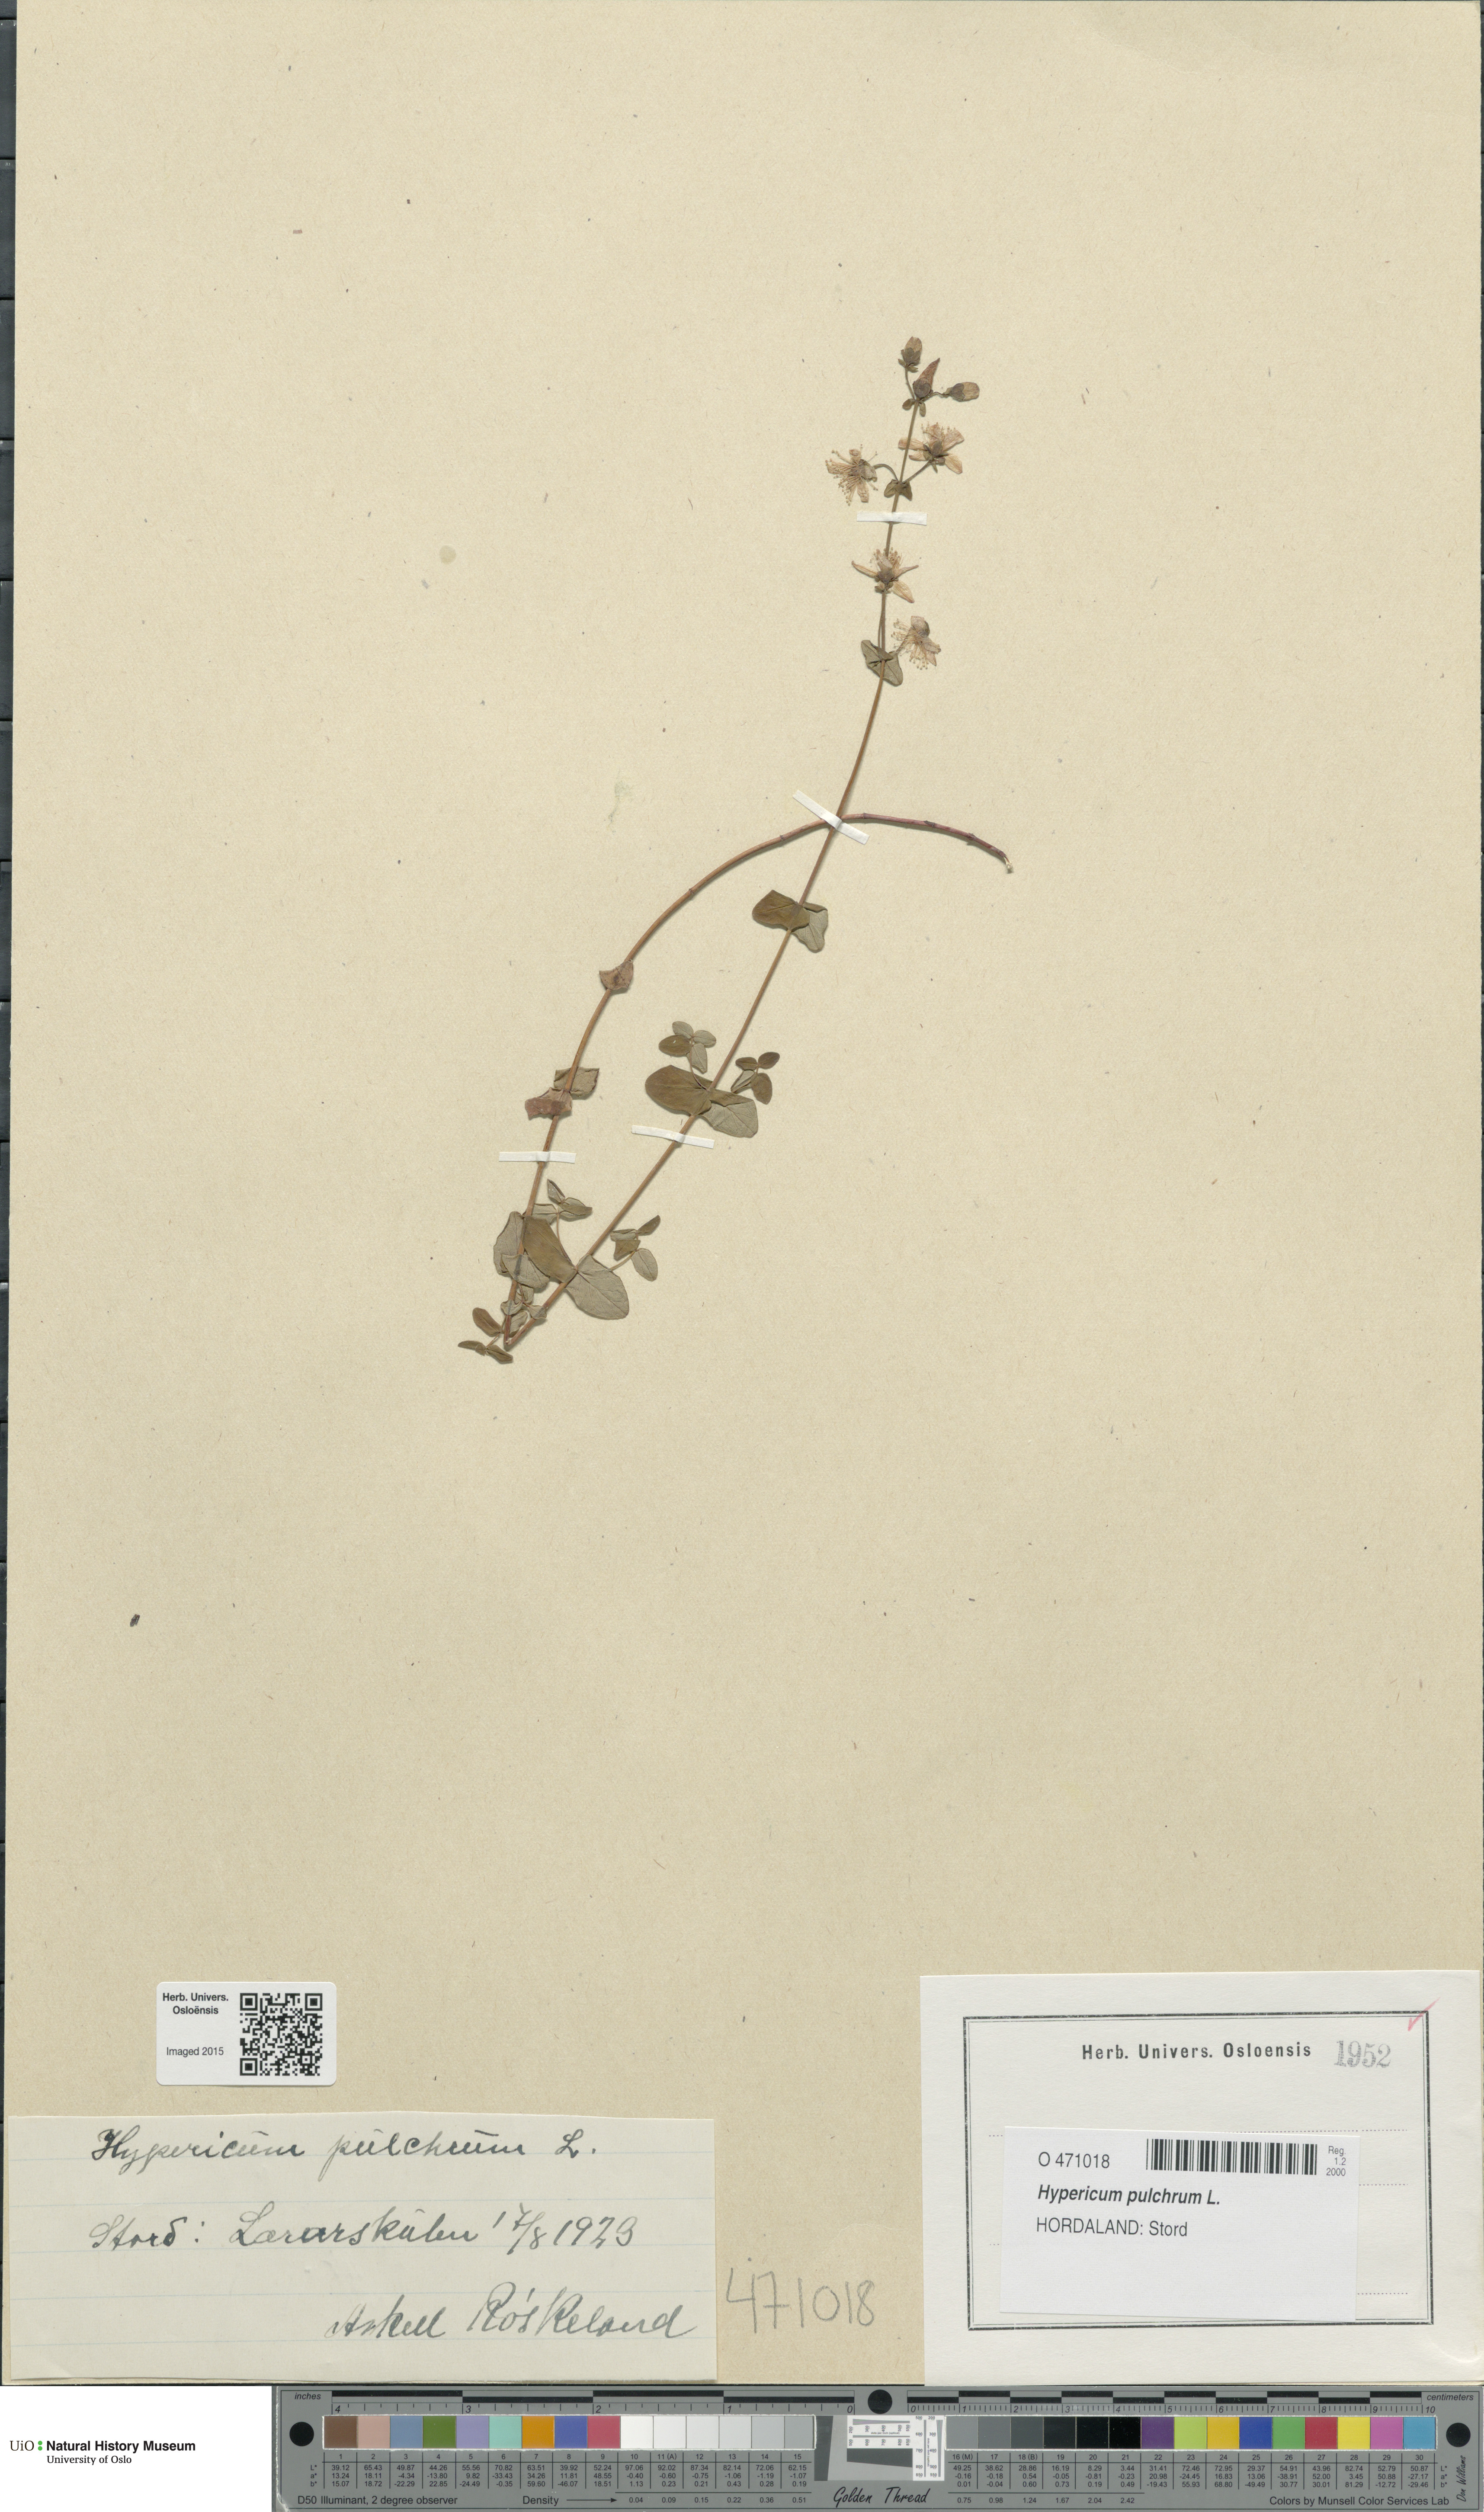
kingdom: Plantae
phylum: Tracheophyta
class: Magnoliopsida
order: Malpighiales
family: Hypericaceae
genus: Hypericum
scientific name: Hypericum pulchrum
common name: Slender st. john's-wort
